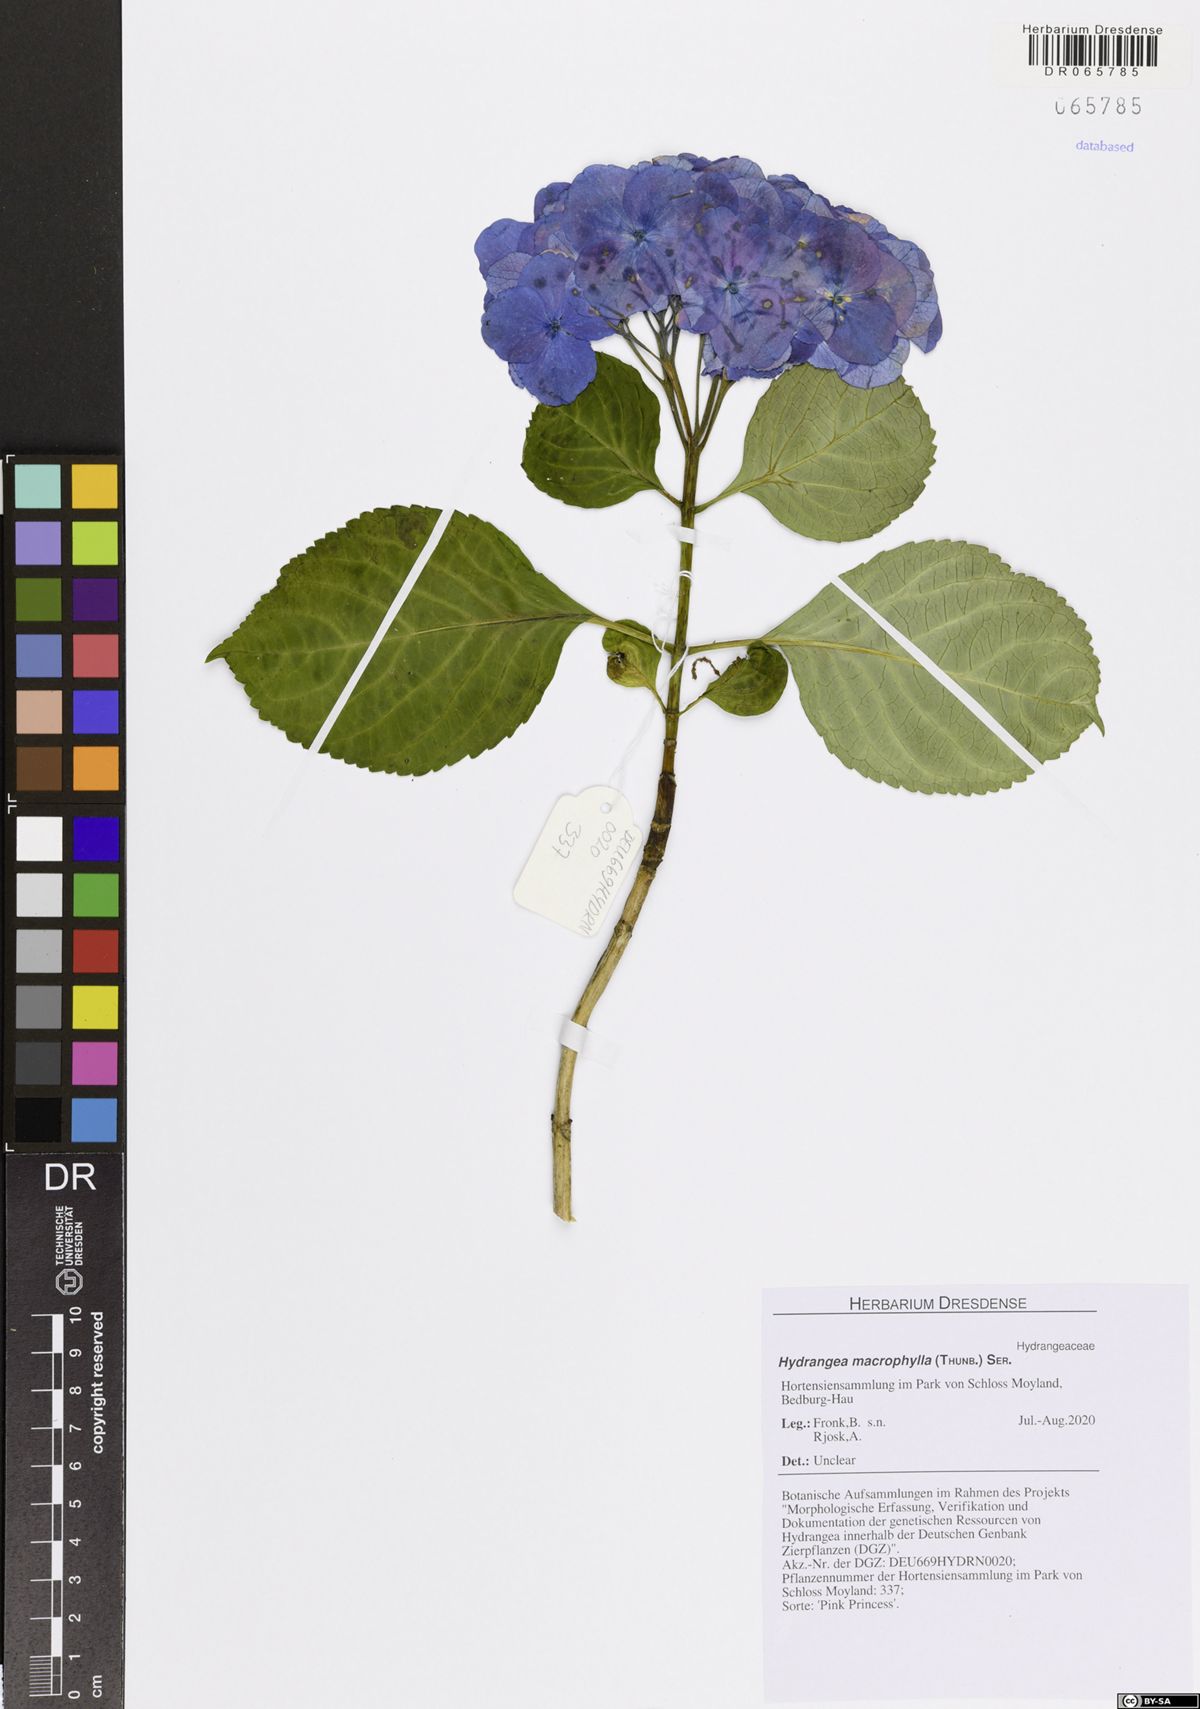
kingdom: Plantae
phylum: Tracheophyta
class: Magnoliopsida
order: Cornales
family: Hydrangeaceae
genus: Hydrangea
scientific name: Hydrangea macrophylla
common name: Hydrangea
